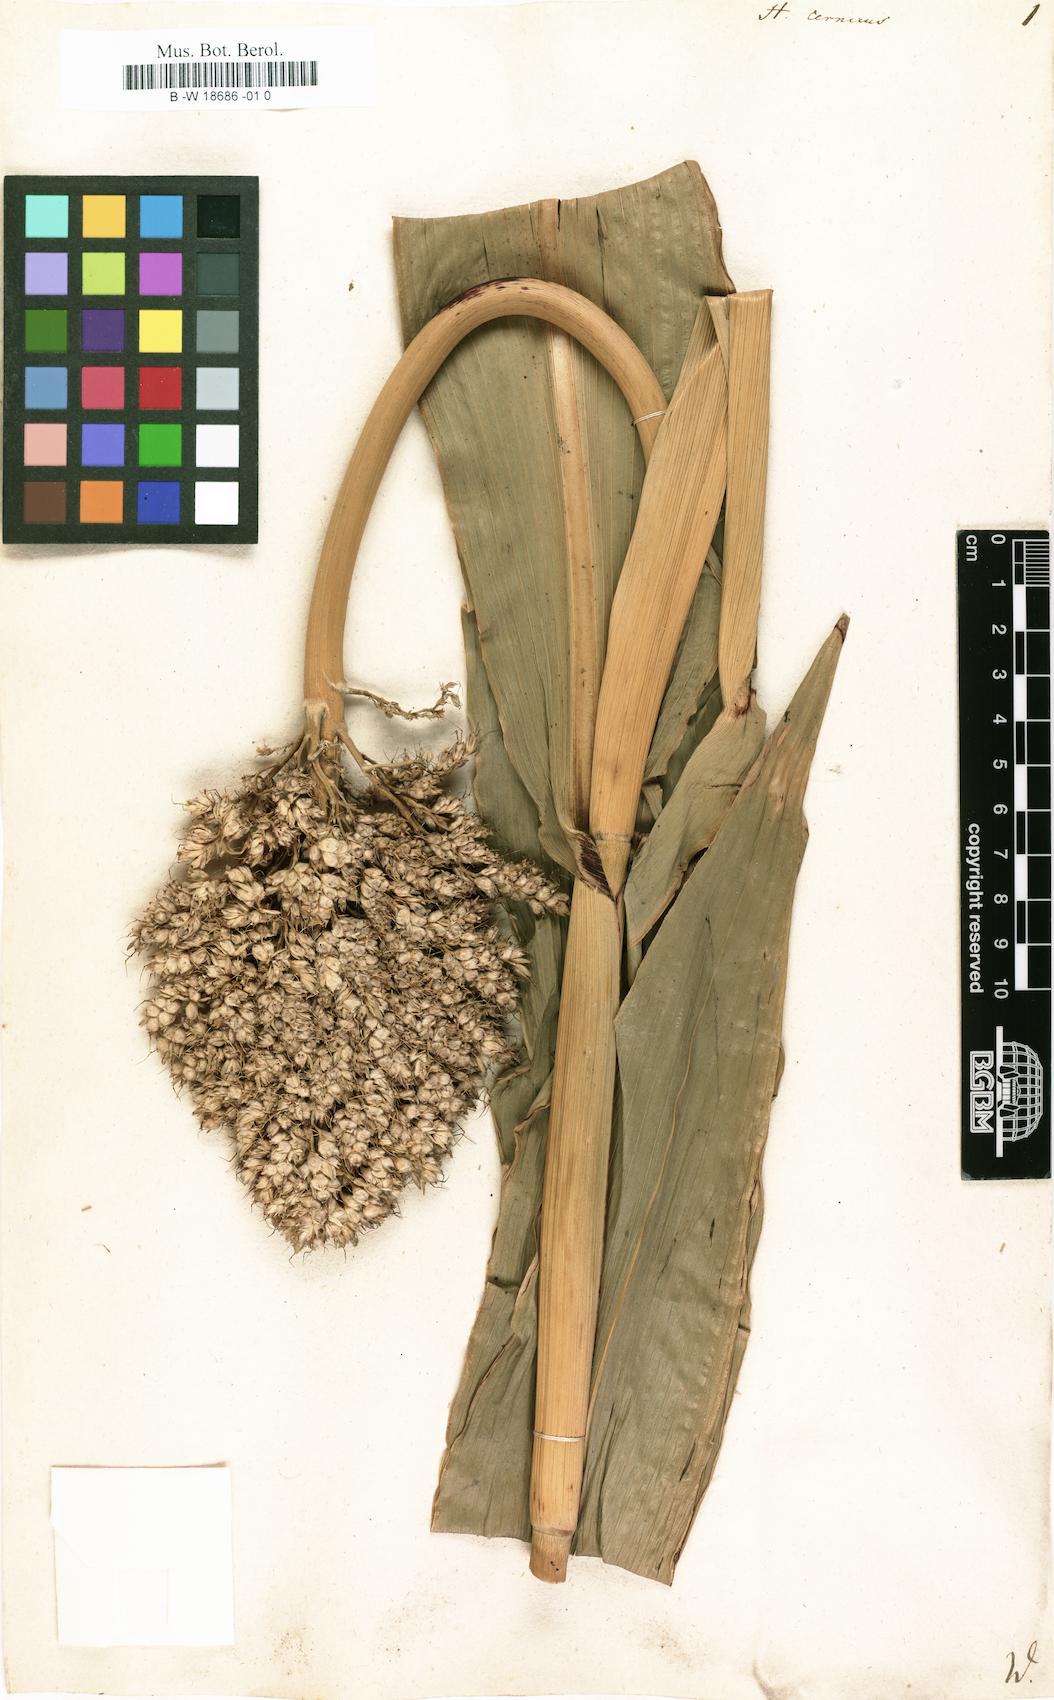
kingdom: Plantae
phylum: Tracheophyta
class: Liliopsida
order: Poales
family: Poaceae
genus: Sorghum
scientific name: Sorghum bicolor
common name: Sorghum
